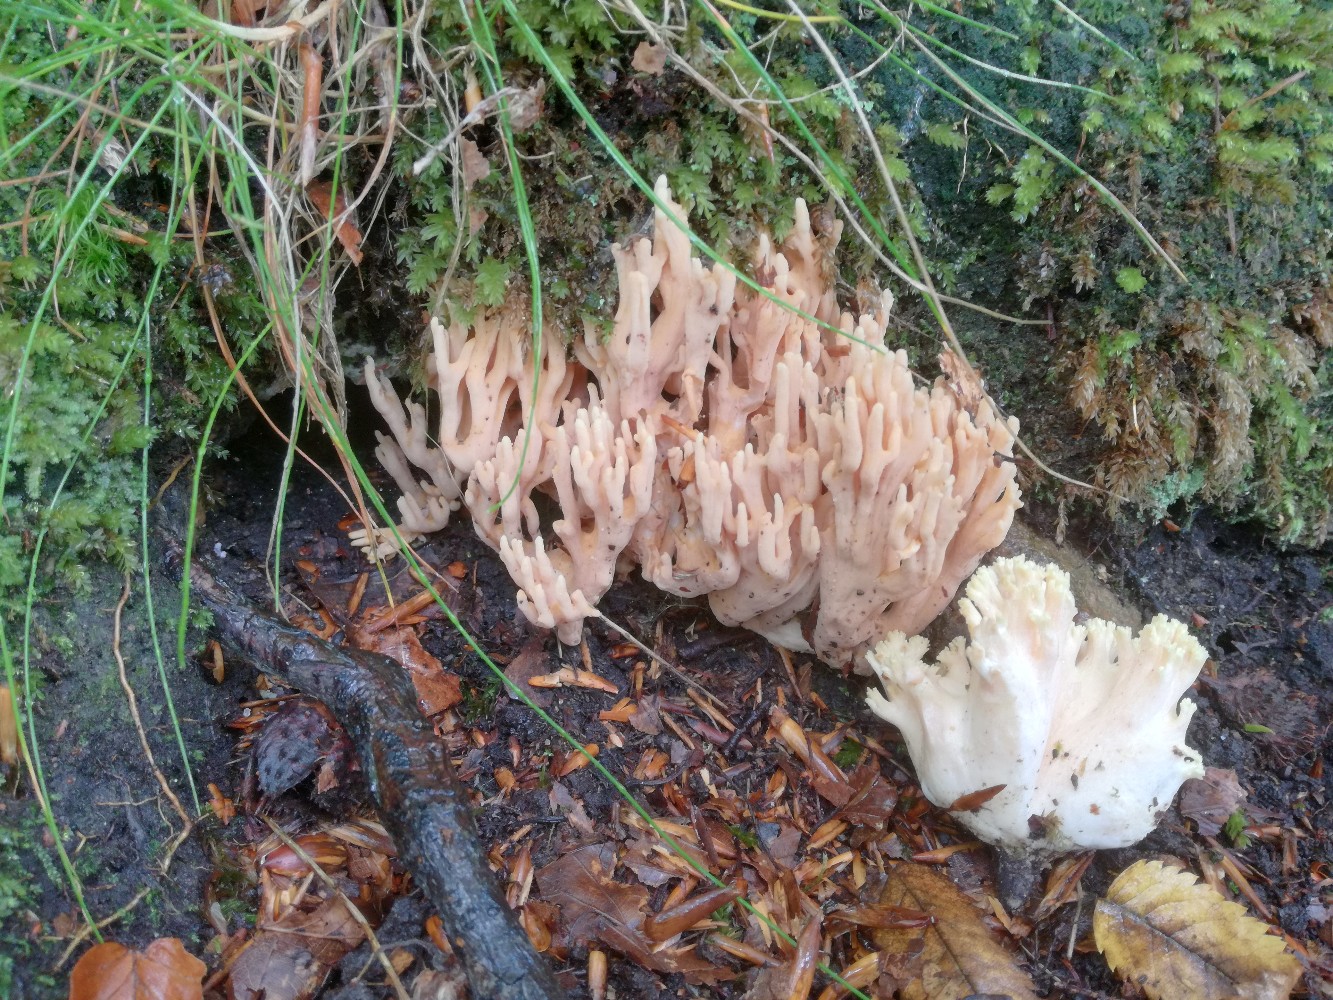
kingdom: Fungi
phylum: Basidiomycota
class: Agaricomycetes
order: Gomphales
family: Gomphaceae
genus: Ramaria
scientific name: Ramaria formosa
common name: smuk koralsvamp
